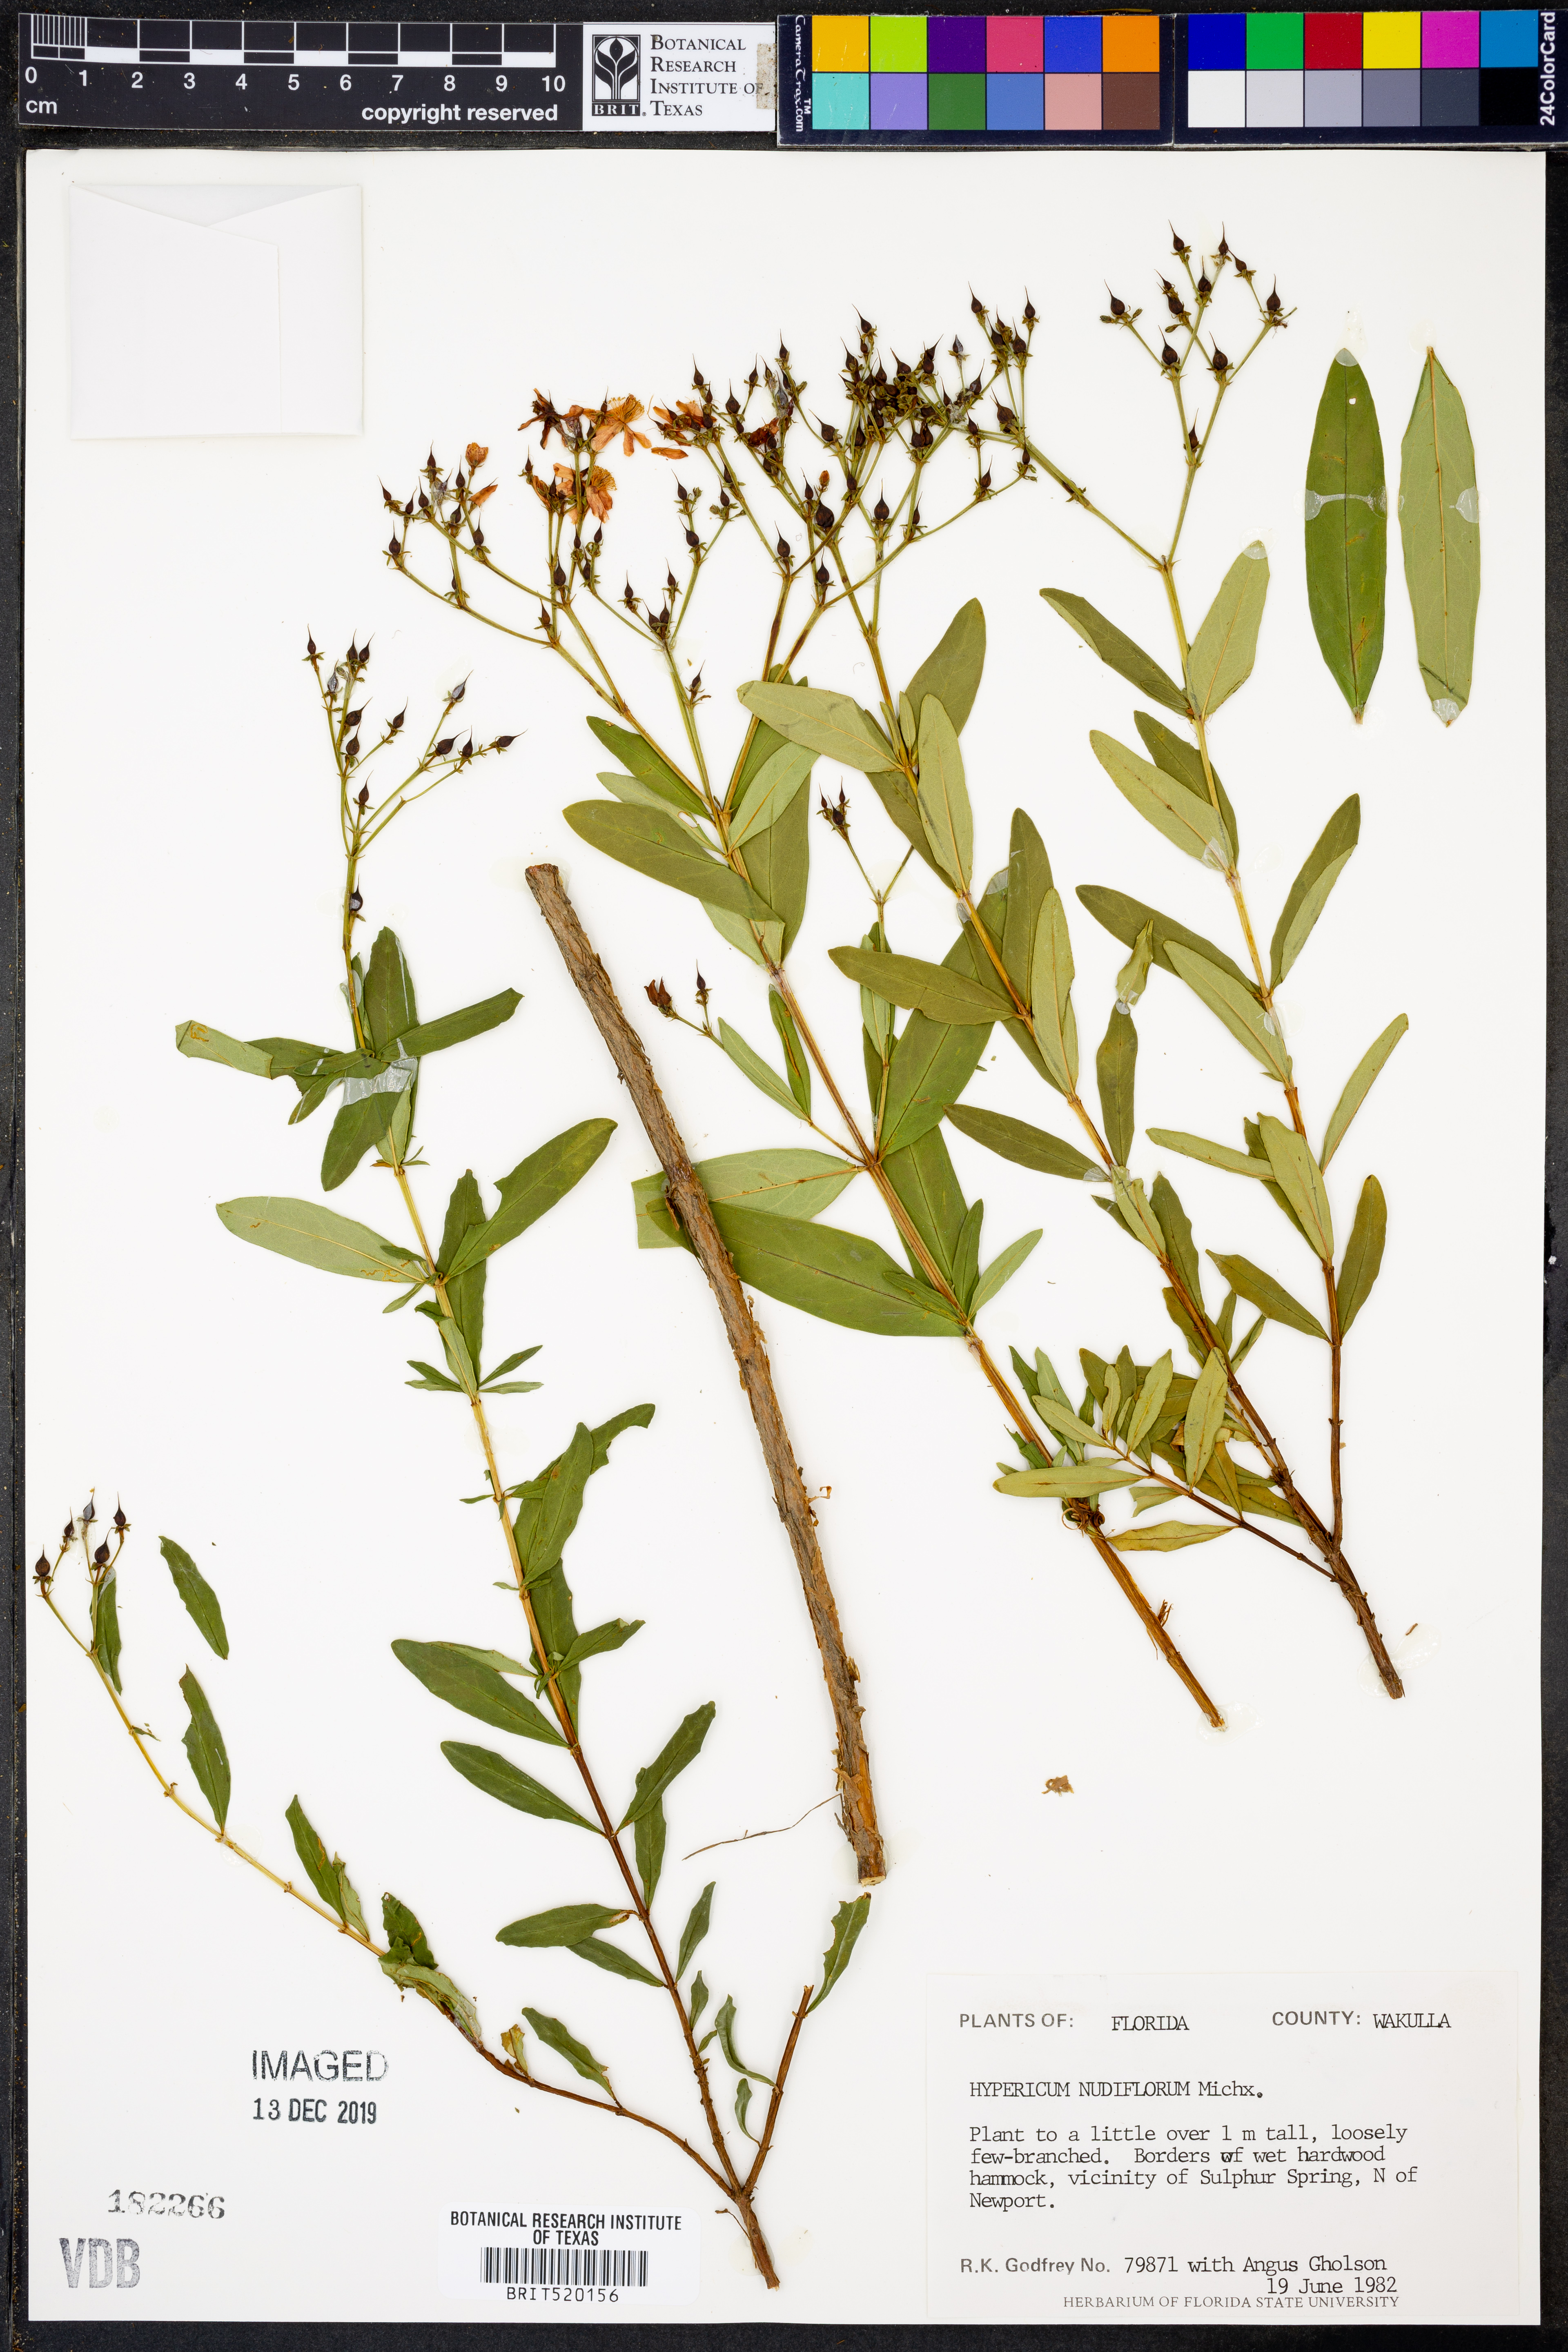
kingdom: Plantae
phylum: Tracheophyta
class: Magnoliopsida
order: Malpighiales
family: Hypericaceae
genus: Hypericum
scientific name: Hypericum nudiflorum
